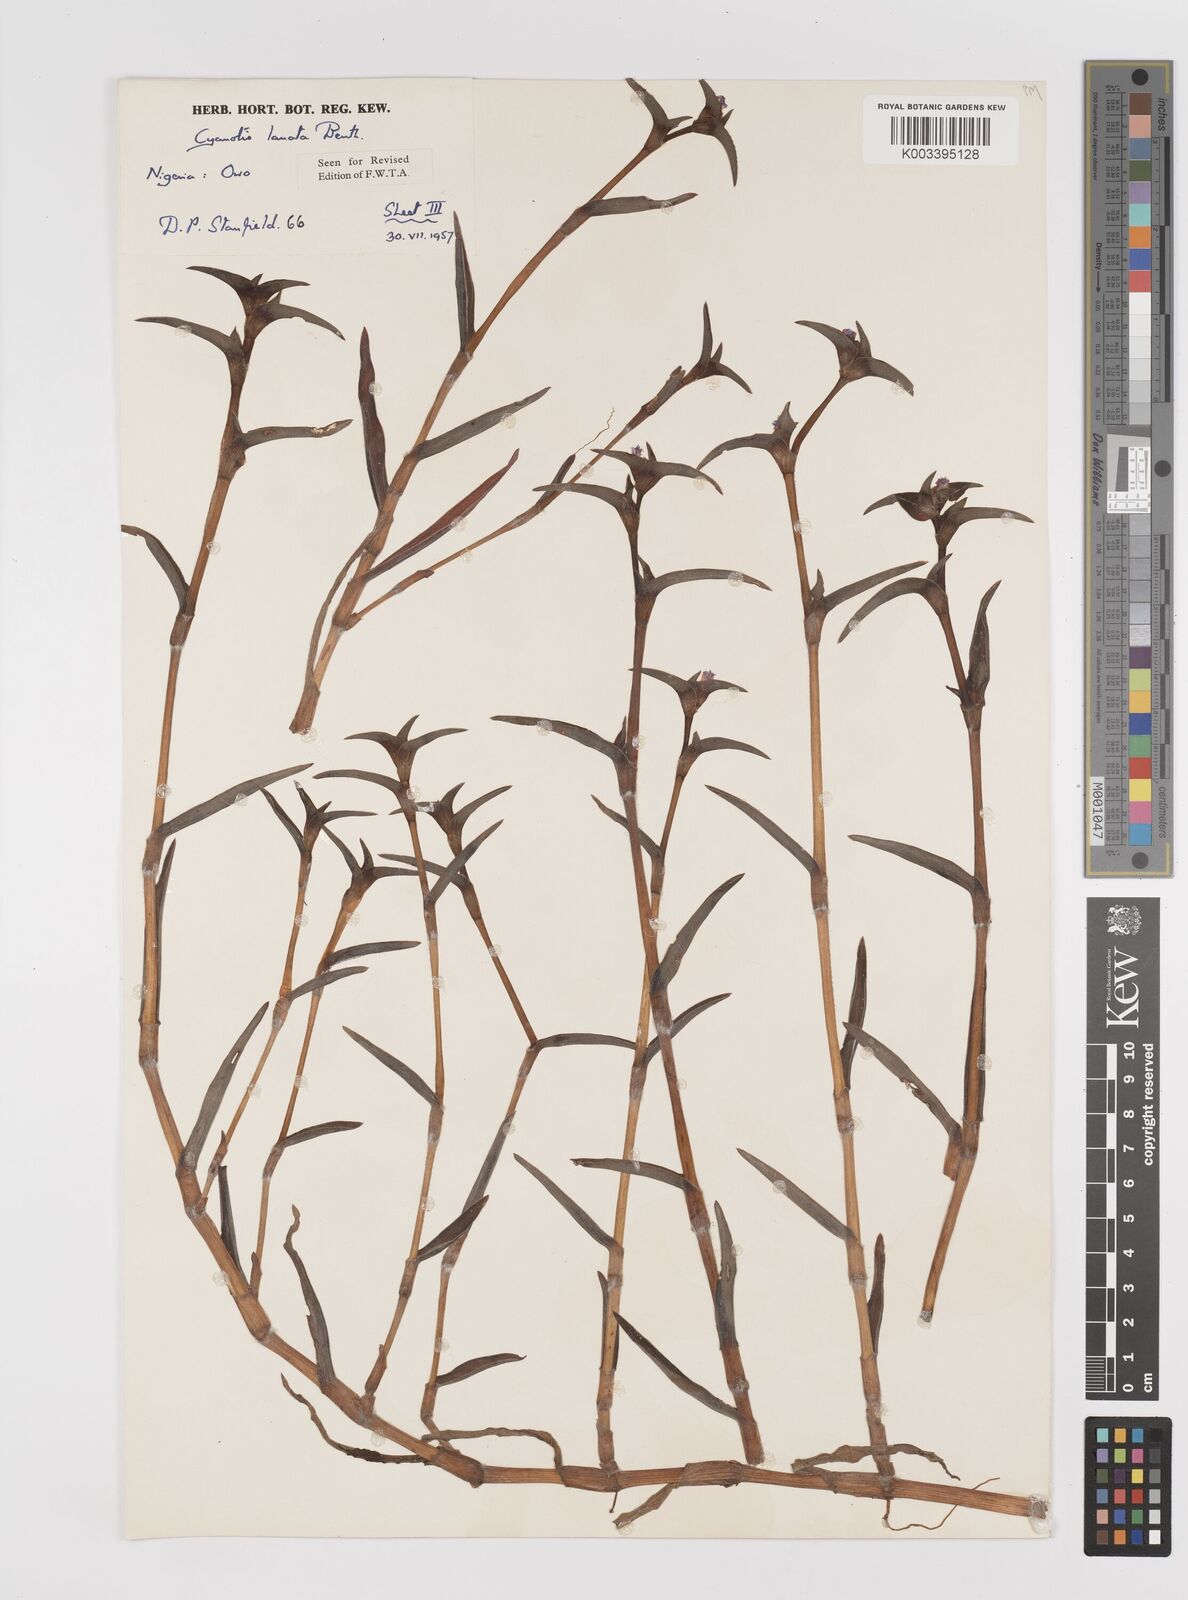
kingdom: Plantae
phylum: Tracheophyta
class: Liliopsida
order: Commelinales
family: Commelinaceae
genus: Cyanotis
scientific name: Cyanotis lanata
